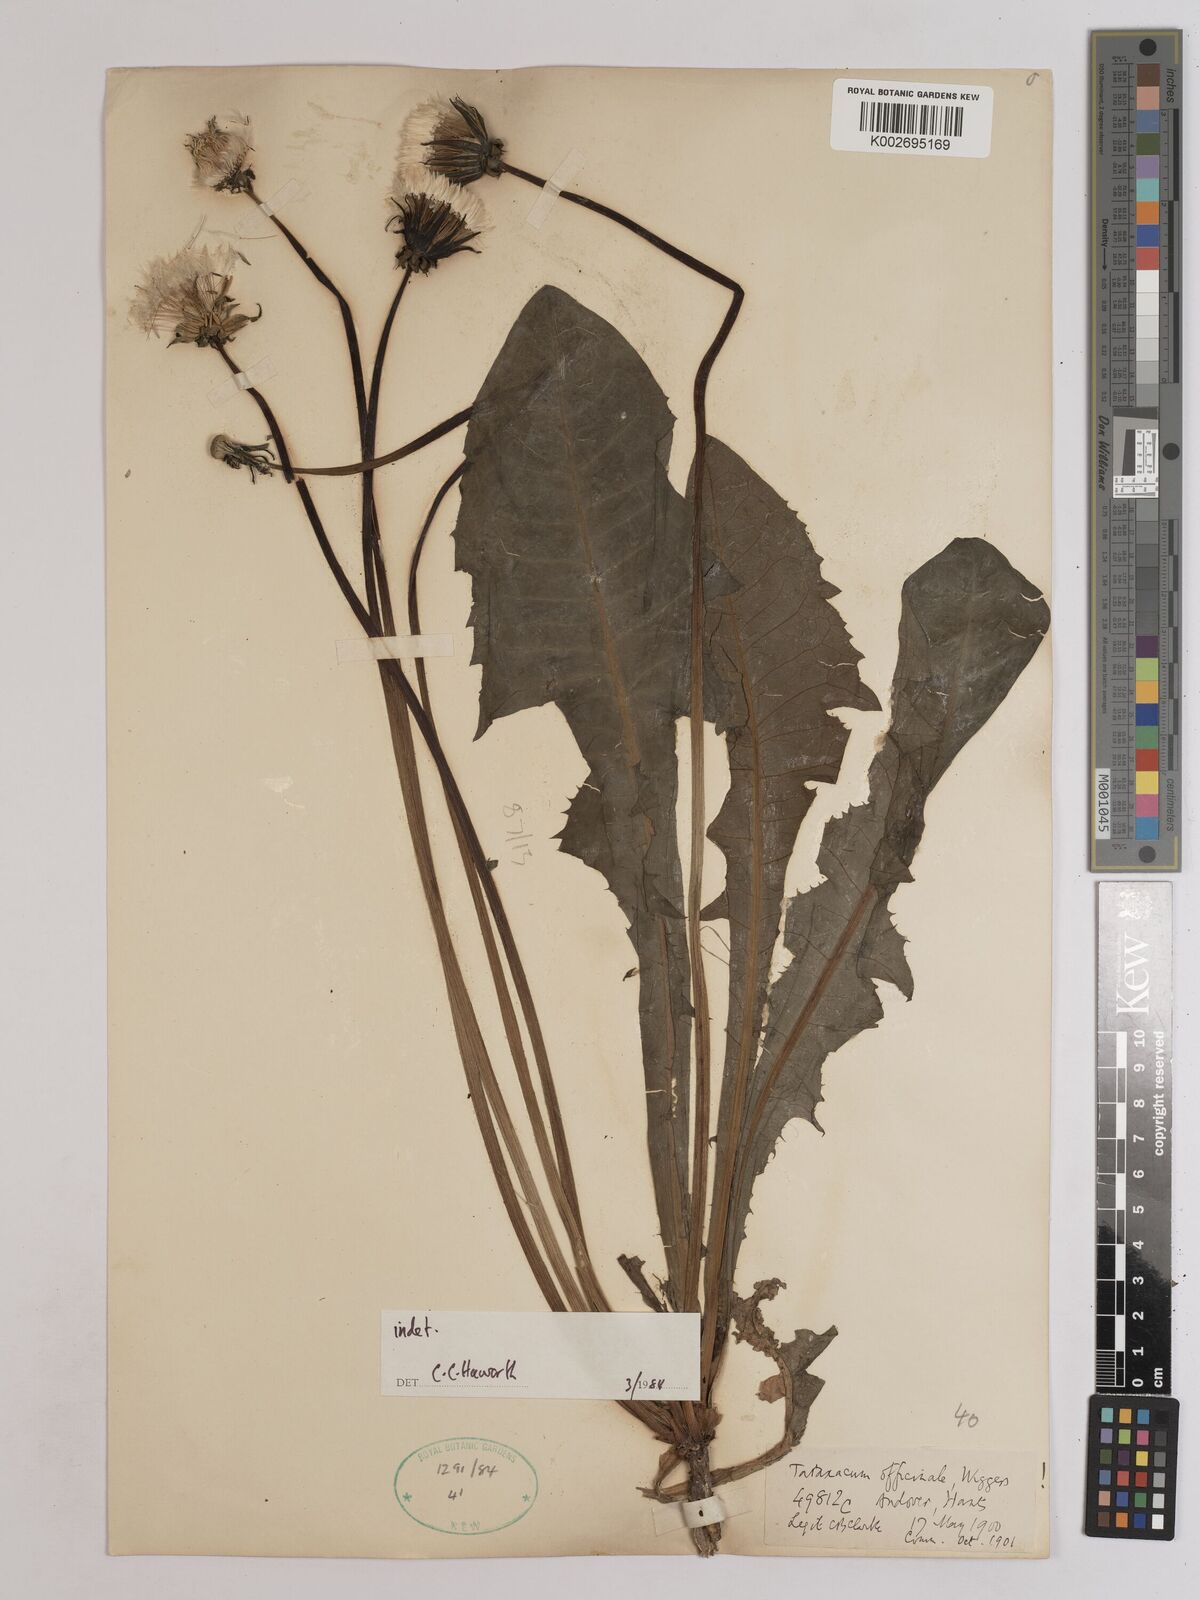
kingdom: Plantae
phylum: Tracheophyta
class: Magnoliopsida
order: Asterales
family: Asteraceae
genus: Taraxacum
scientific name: Taraxacum officinale
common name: Common dandelion
